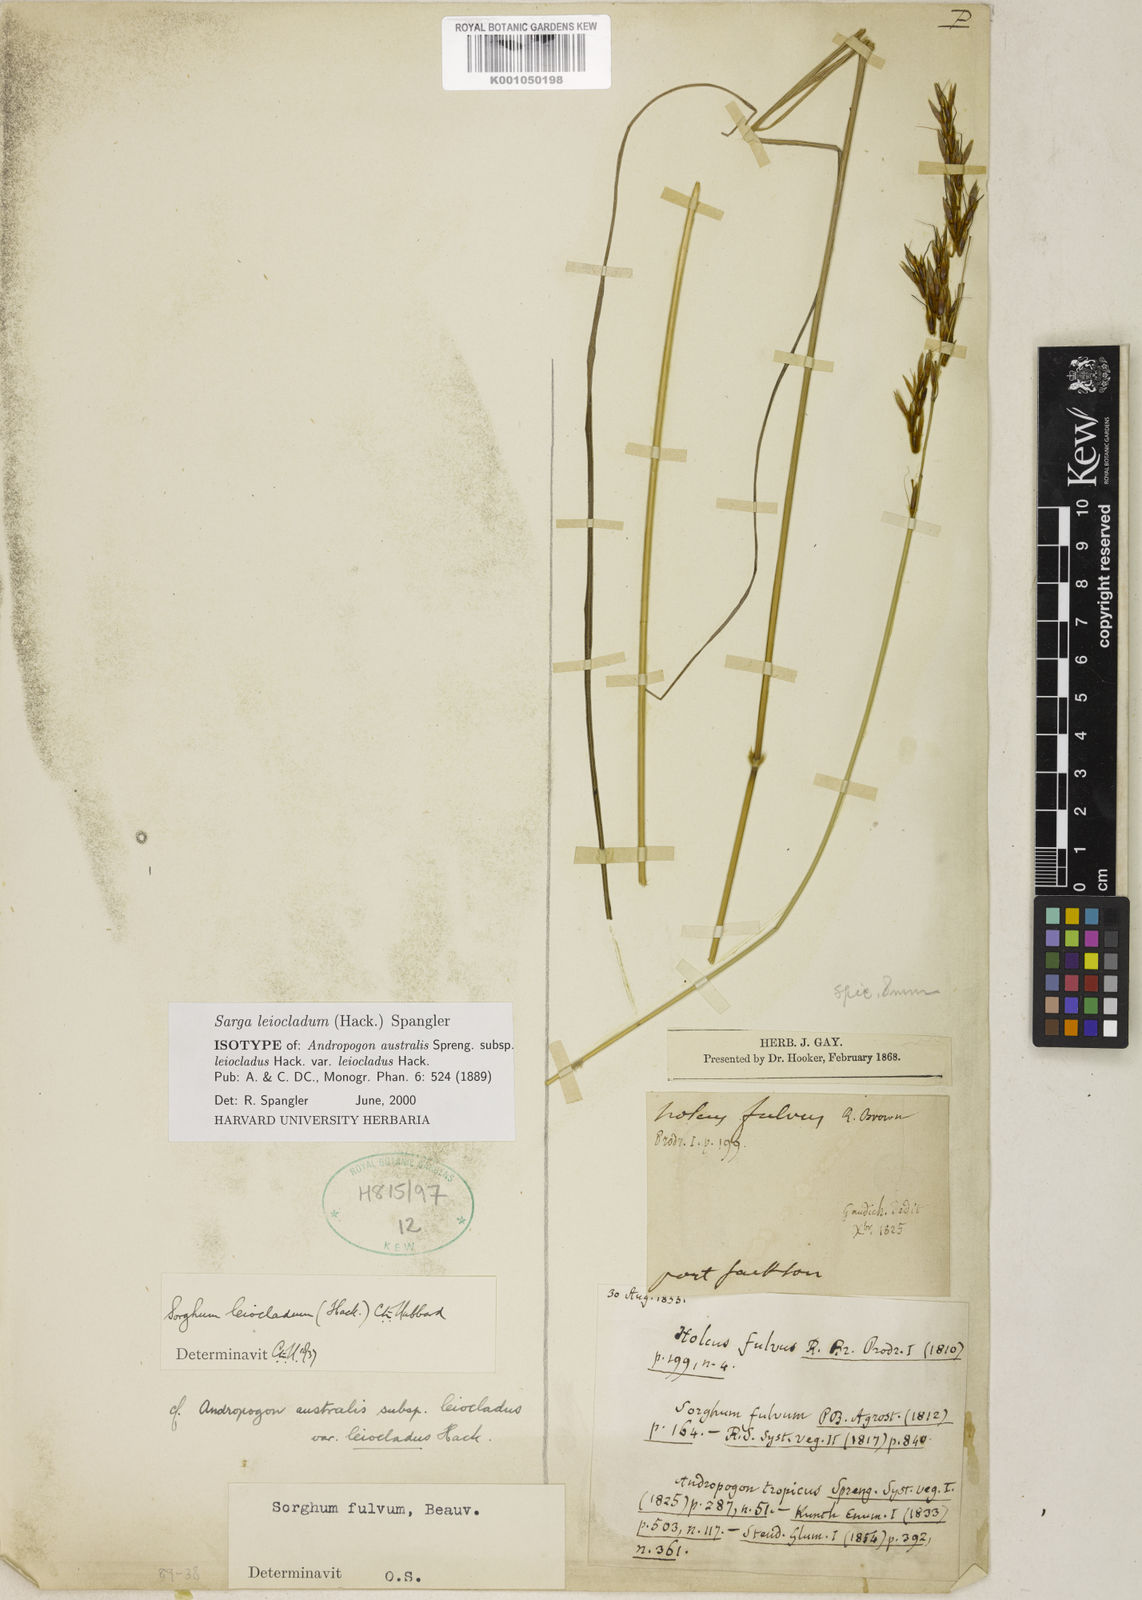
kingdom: Plantae
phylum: Tracheophyta
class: Liliopsida
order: Poales
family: Poaceae
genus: Sarga
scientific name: Sarga leioclada
